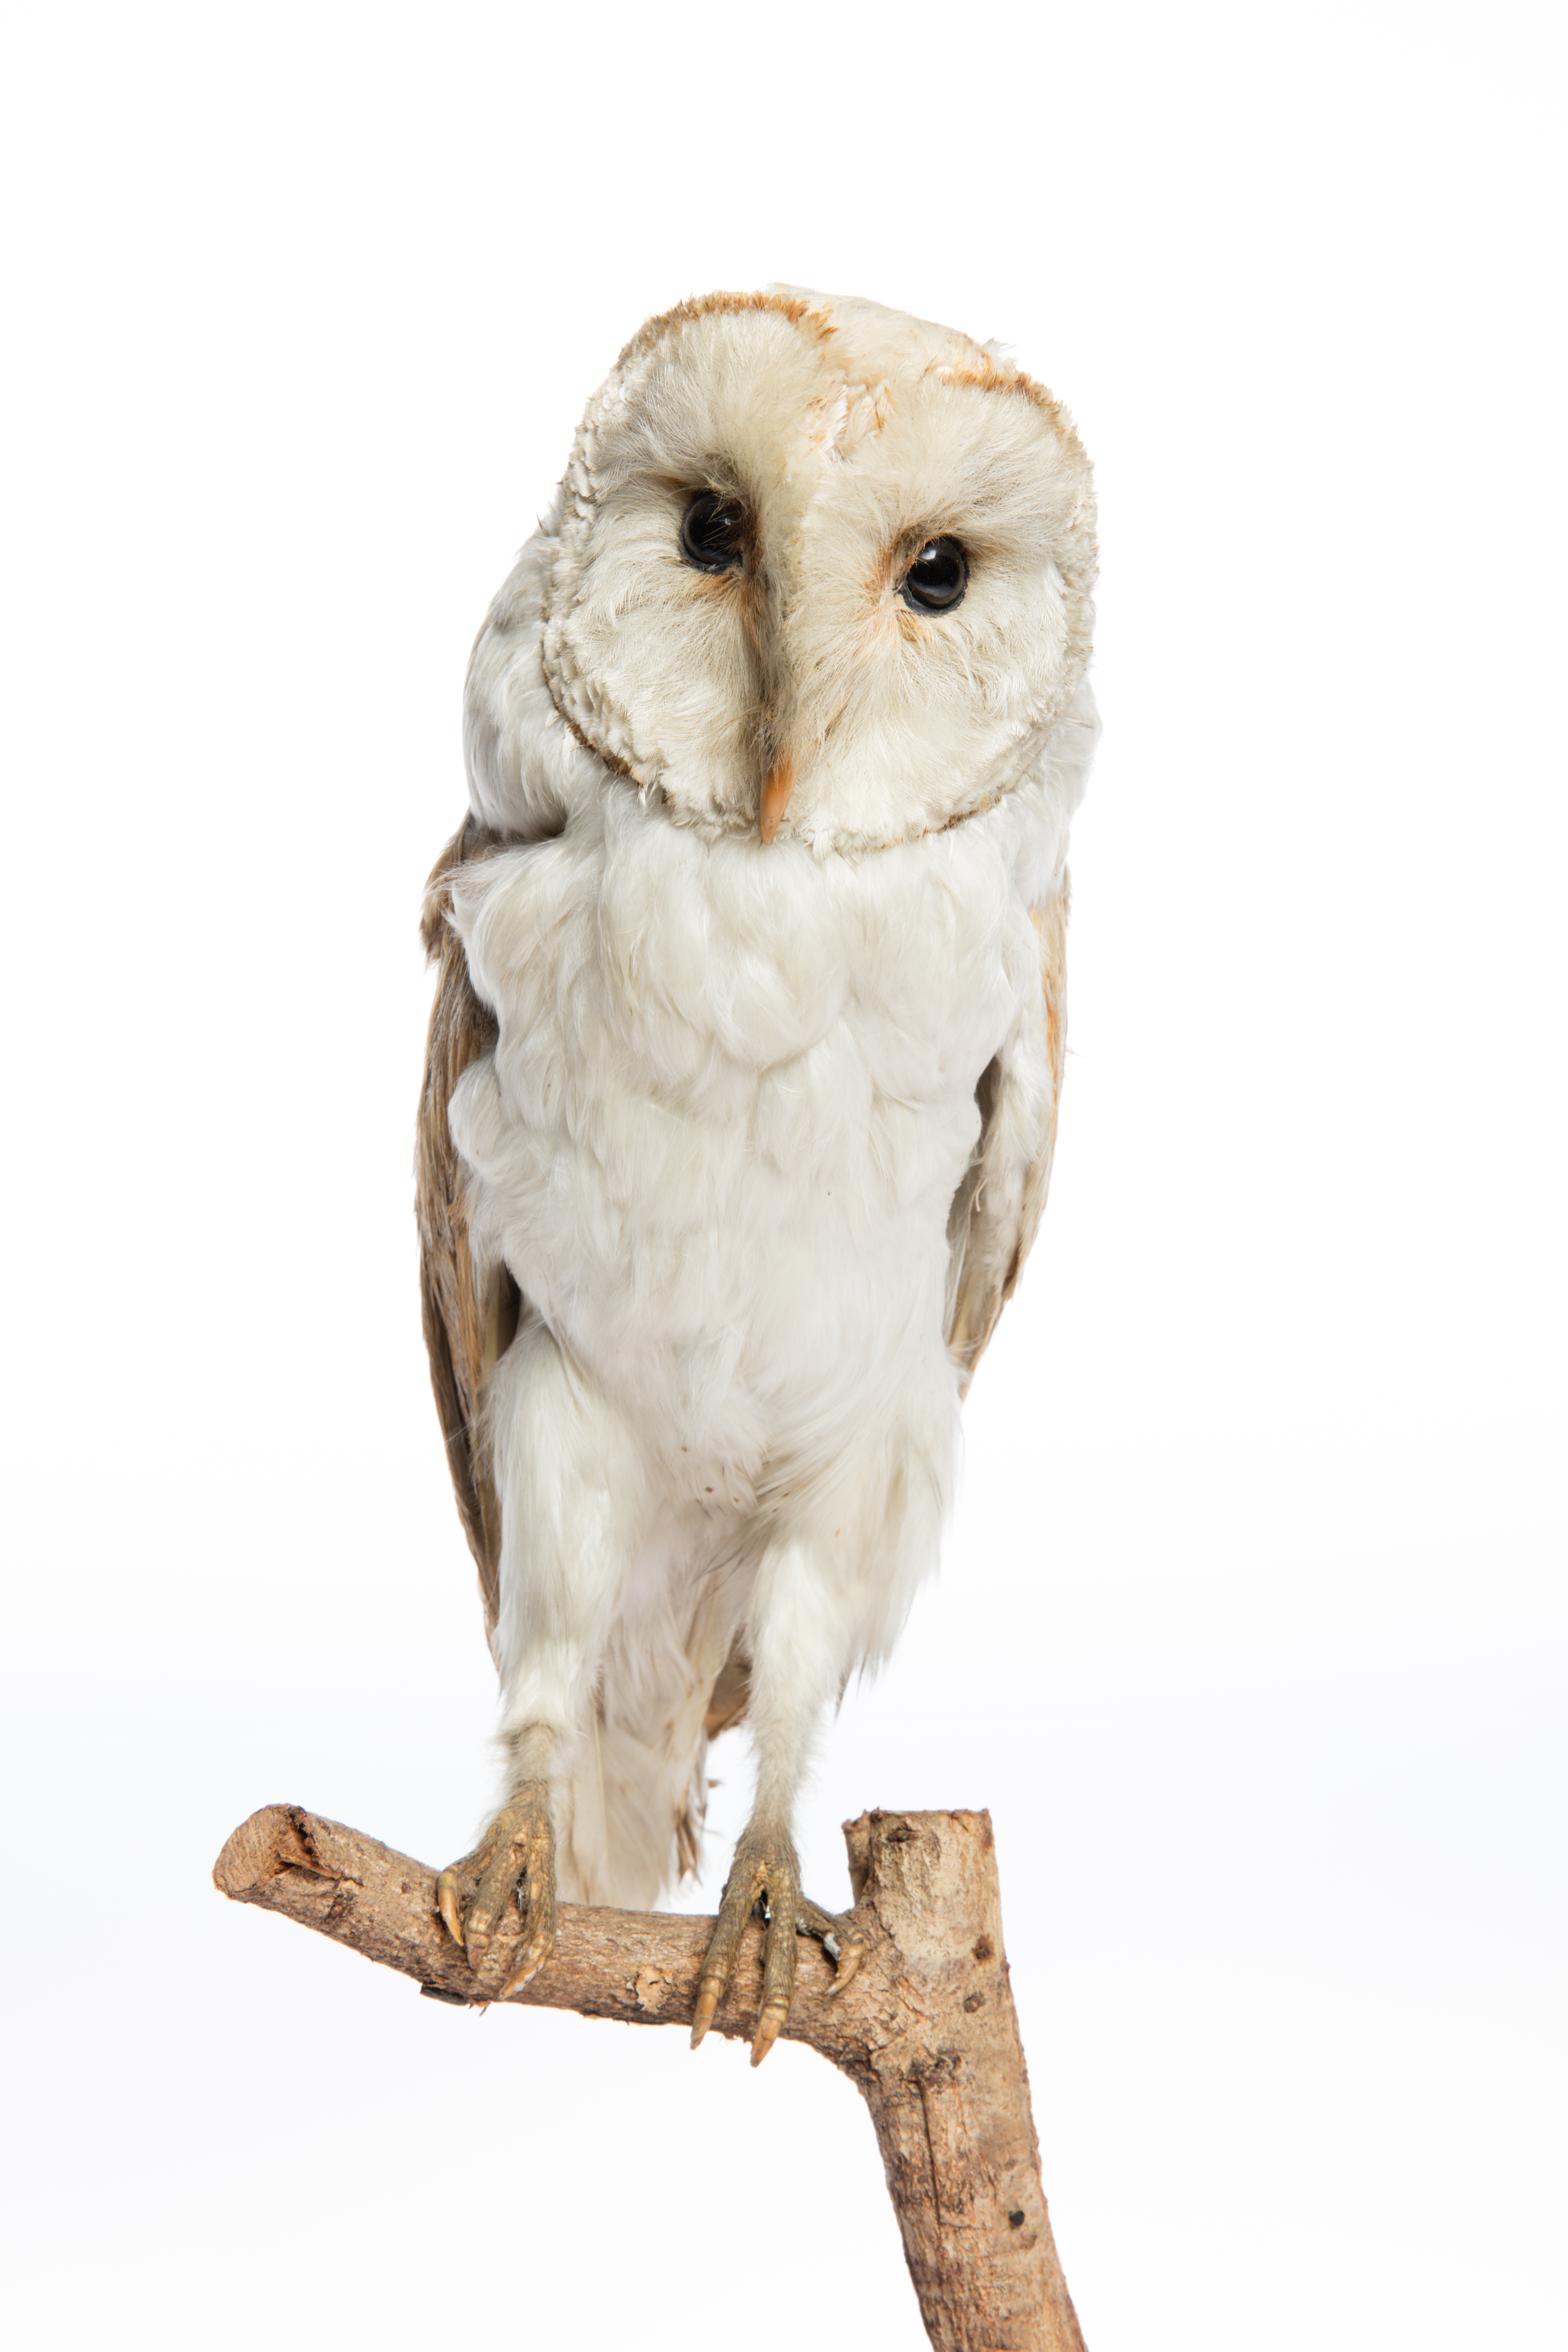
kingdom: Animalia
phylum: Chordata
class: Aves
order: Strigiformes
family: Tytonidae
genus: Tyto
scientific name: Tyto alba
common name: Barn owl
